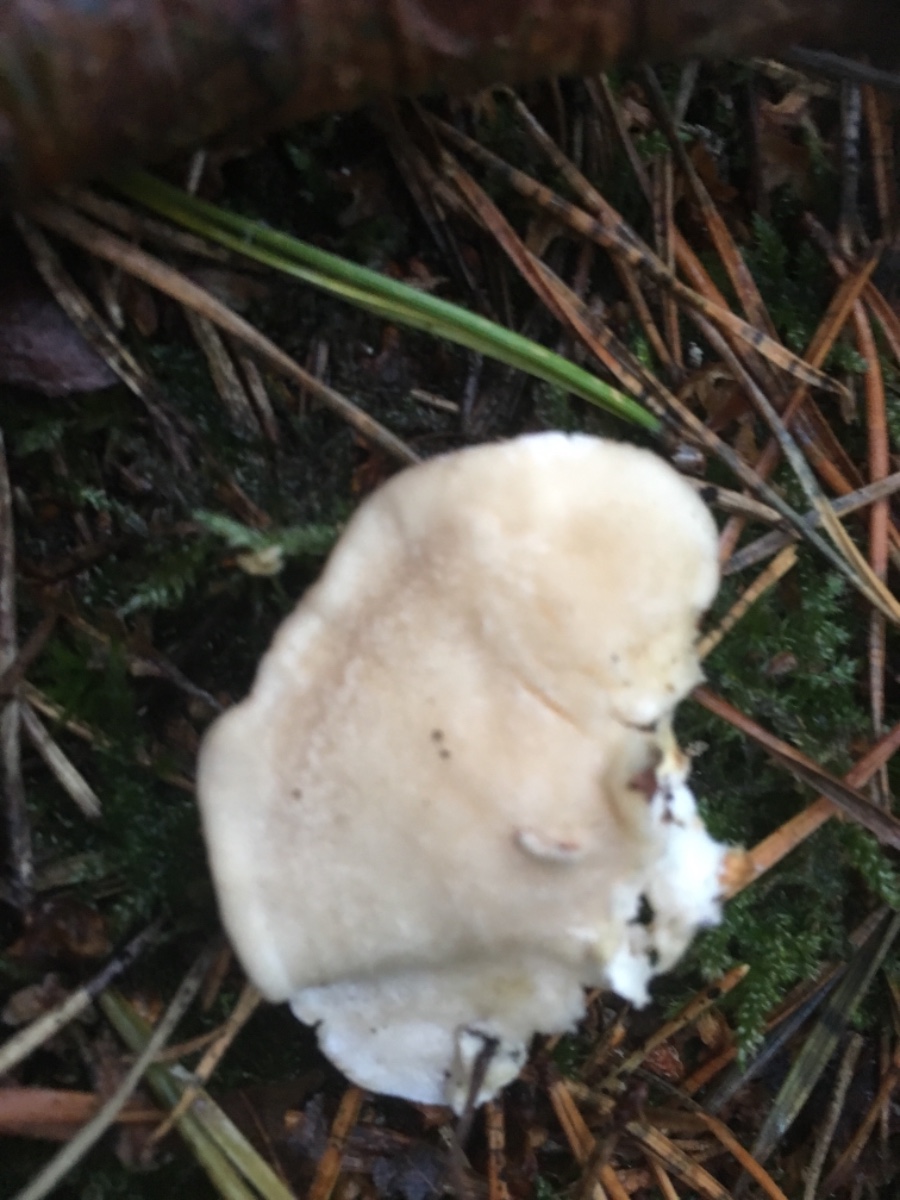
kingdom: Fungi
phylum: Basidiomycota
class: Agaricomycetes
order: Polyporales
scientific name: Polyporales
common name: poresvampordenen
